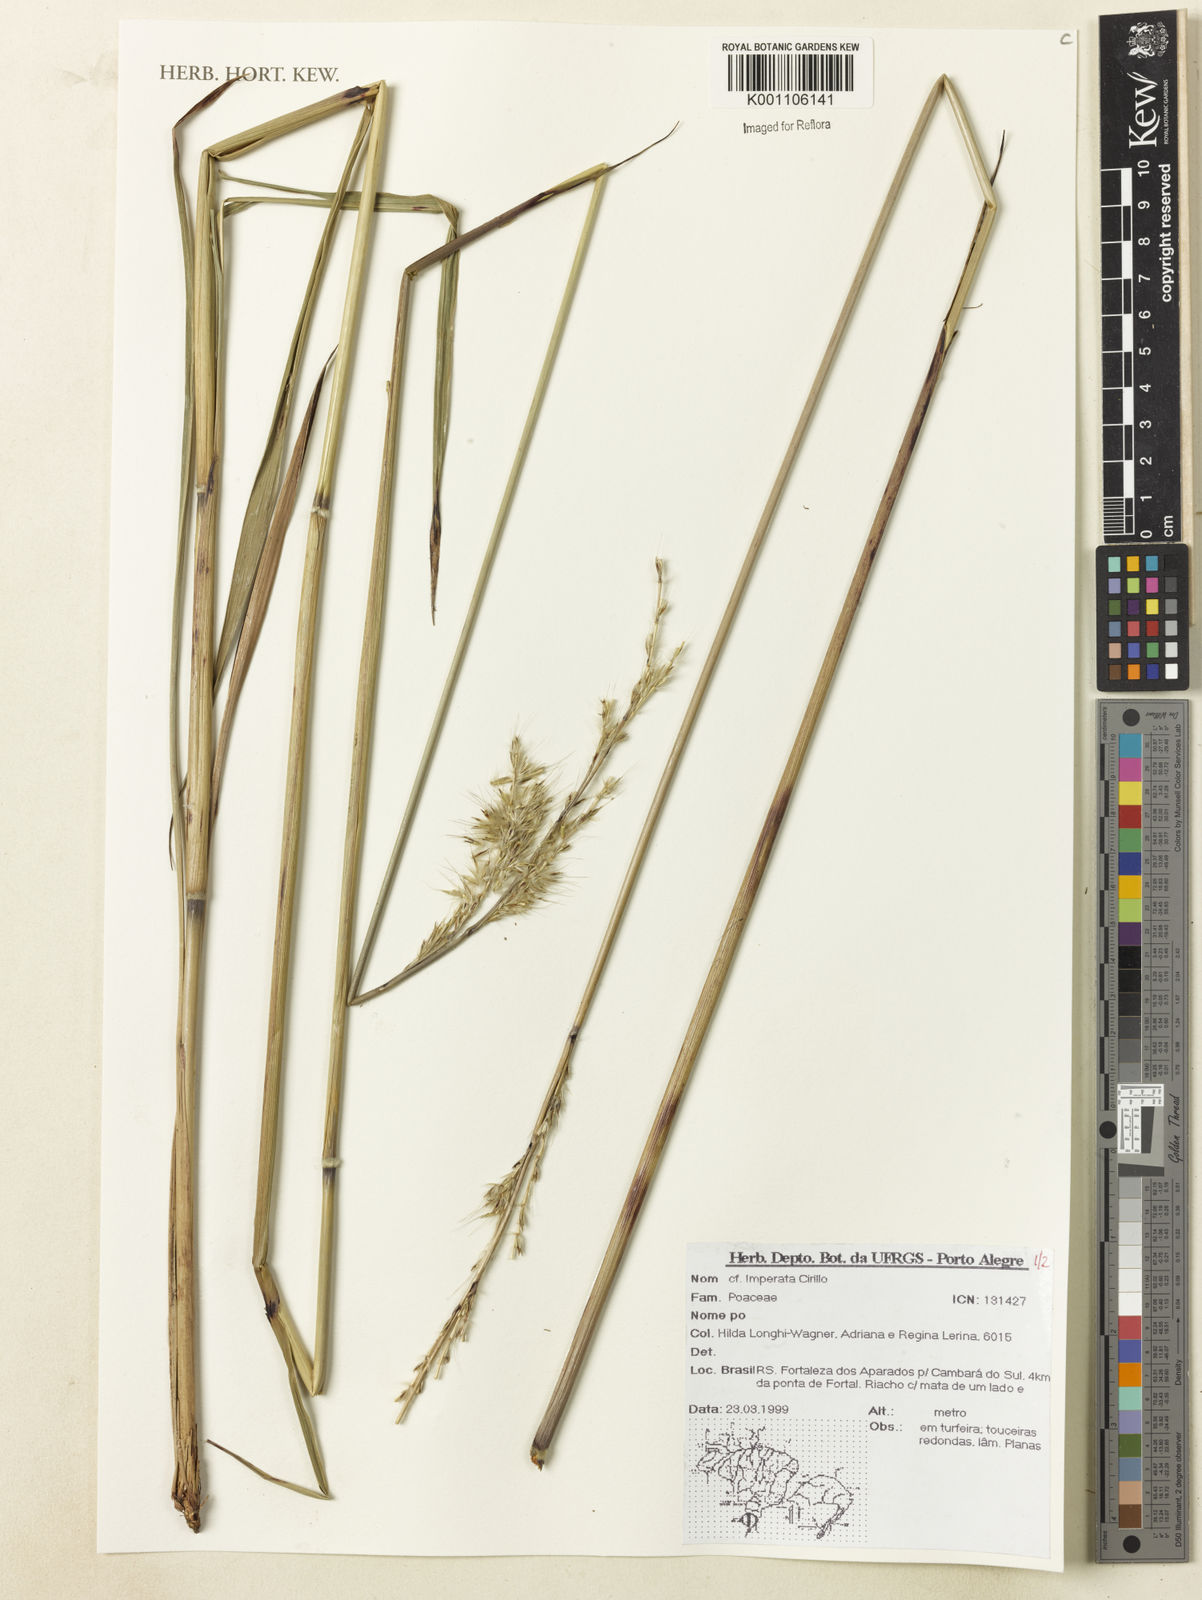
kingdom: Plantae
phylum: Tracheophyta
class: Liliopsida
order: Poales
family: Poaceae
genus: Imperata
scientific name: Imperata
